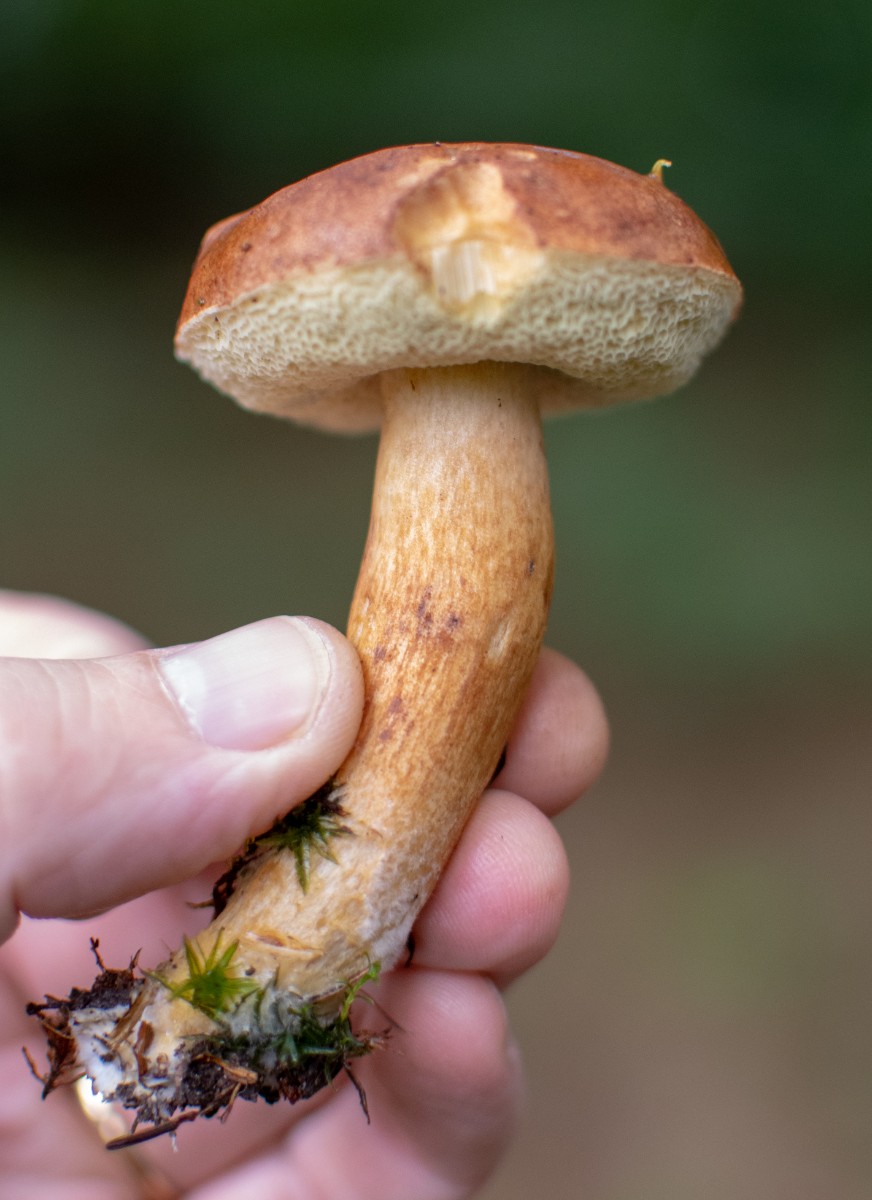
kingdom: Fungi
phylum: Basidiomycota
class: Agaricomycetes
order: Boletales
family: Boletaceae
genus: Imleria
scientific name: Imleria badia
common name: brunstokket rørhat
